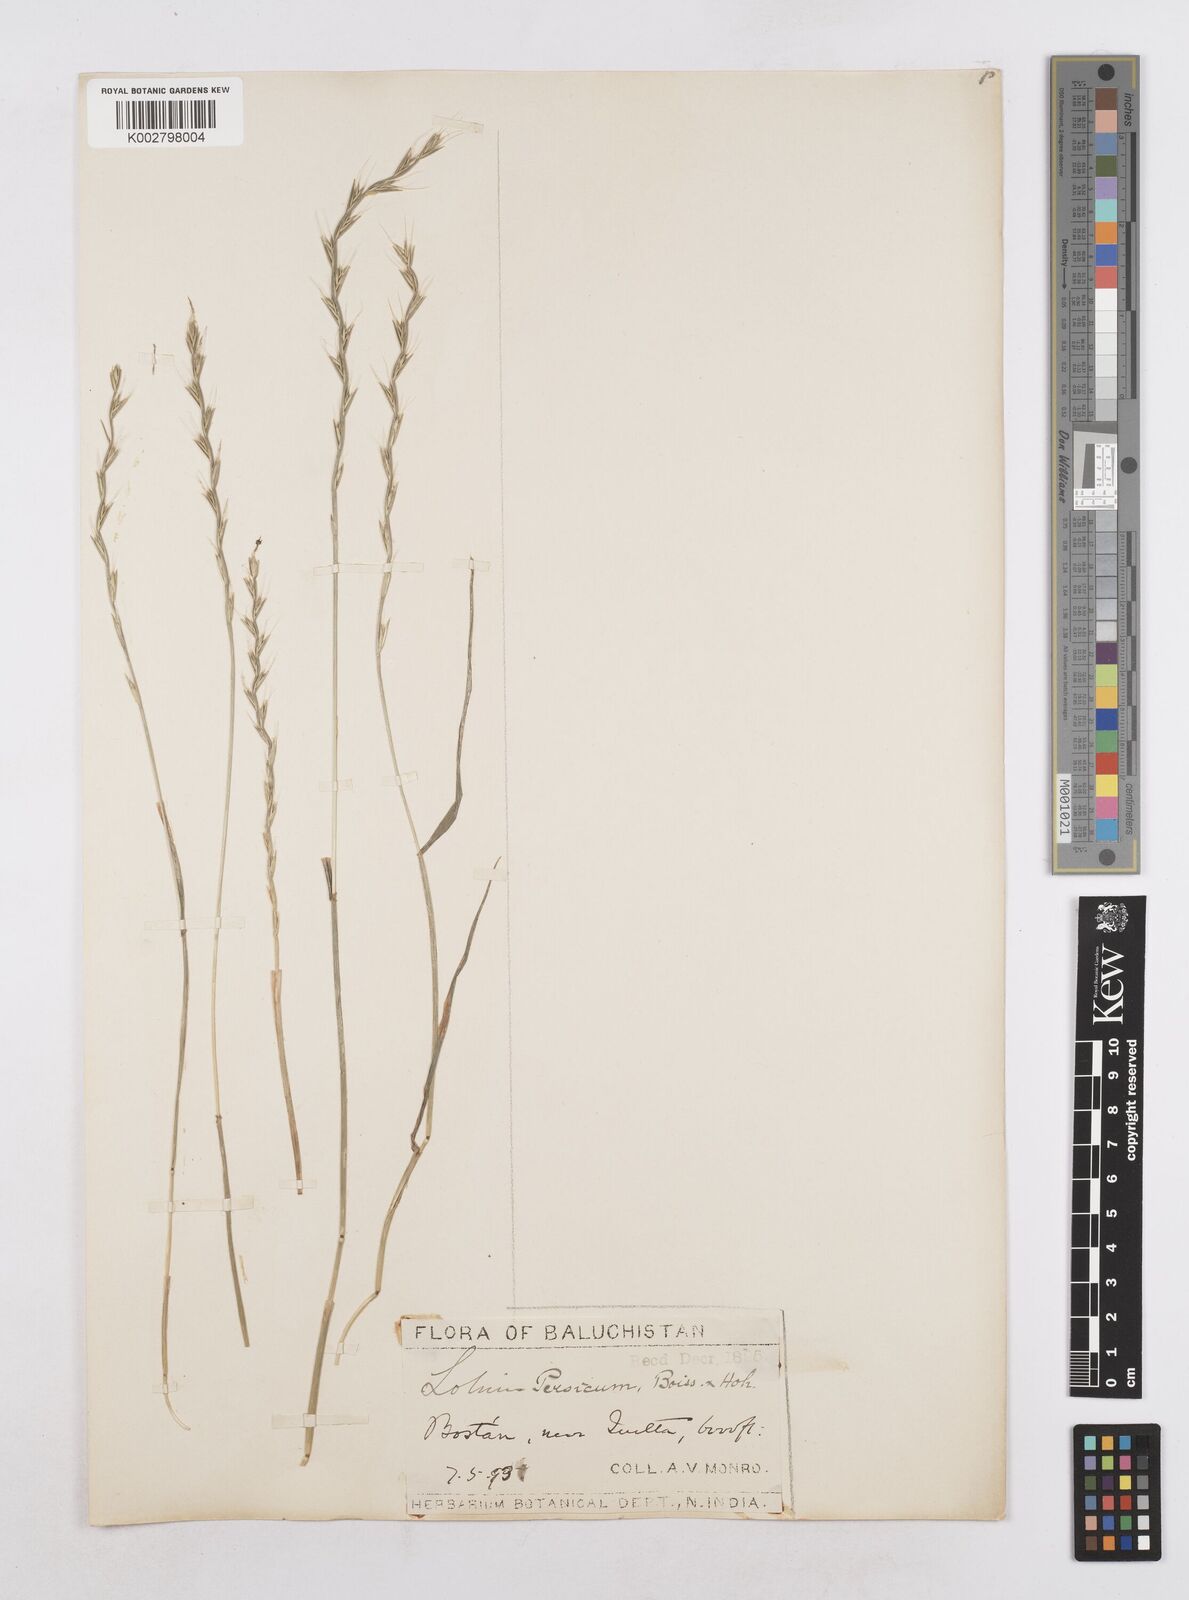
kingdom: Plantae
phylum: Tracheophyta
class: Liliopsida
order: Poales
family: Poaceae
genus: Lolium
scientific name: Lolium persicum
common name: Persian ryegrass
